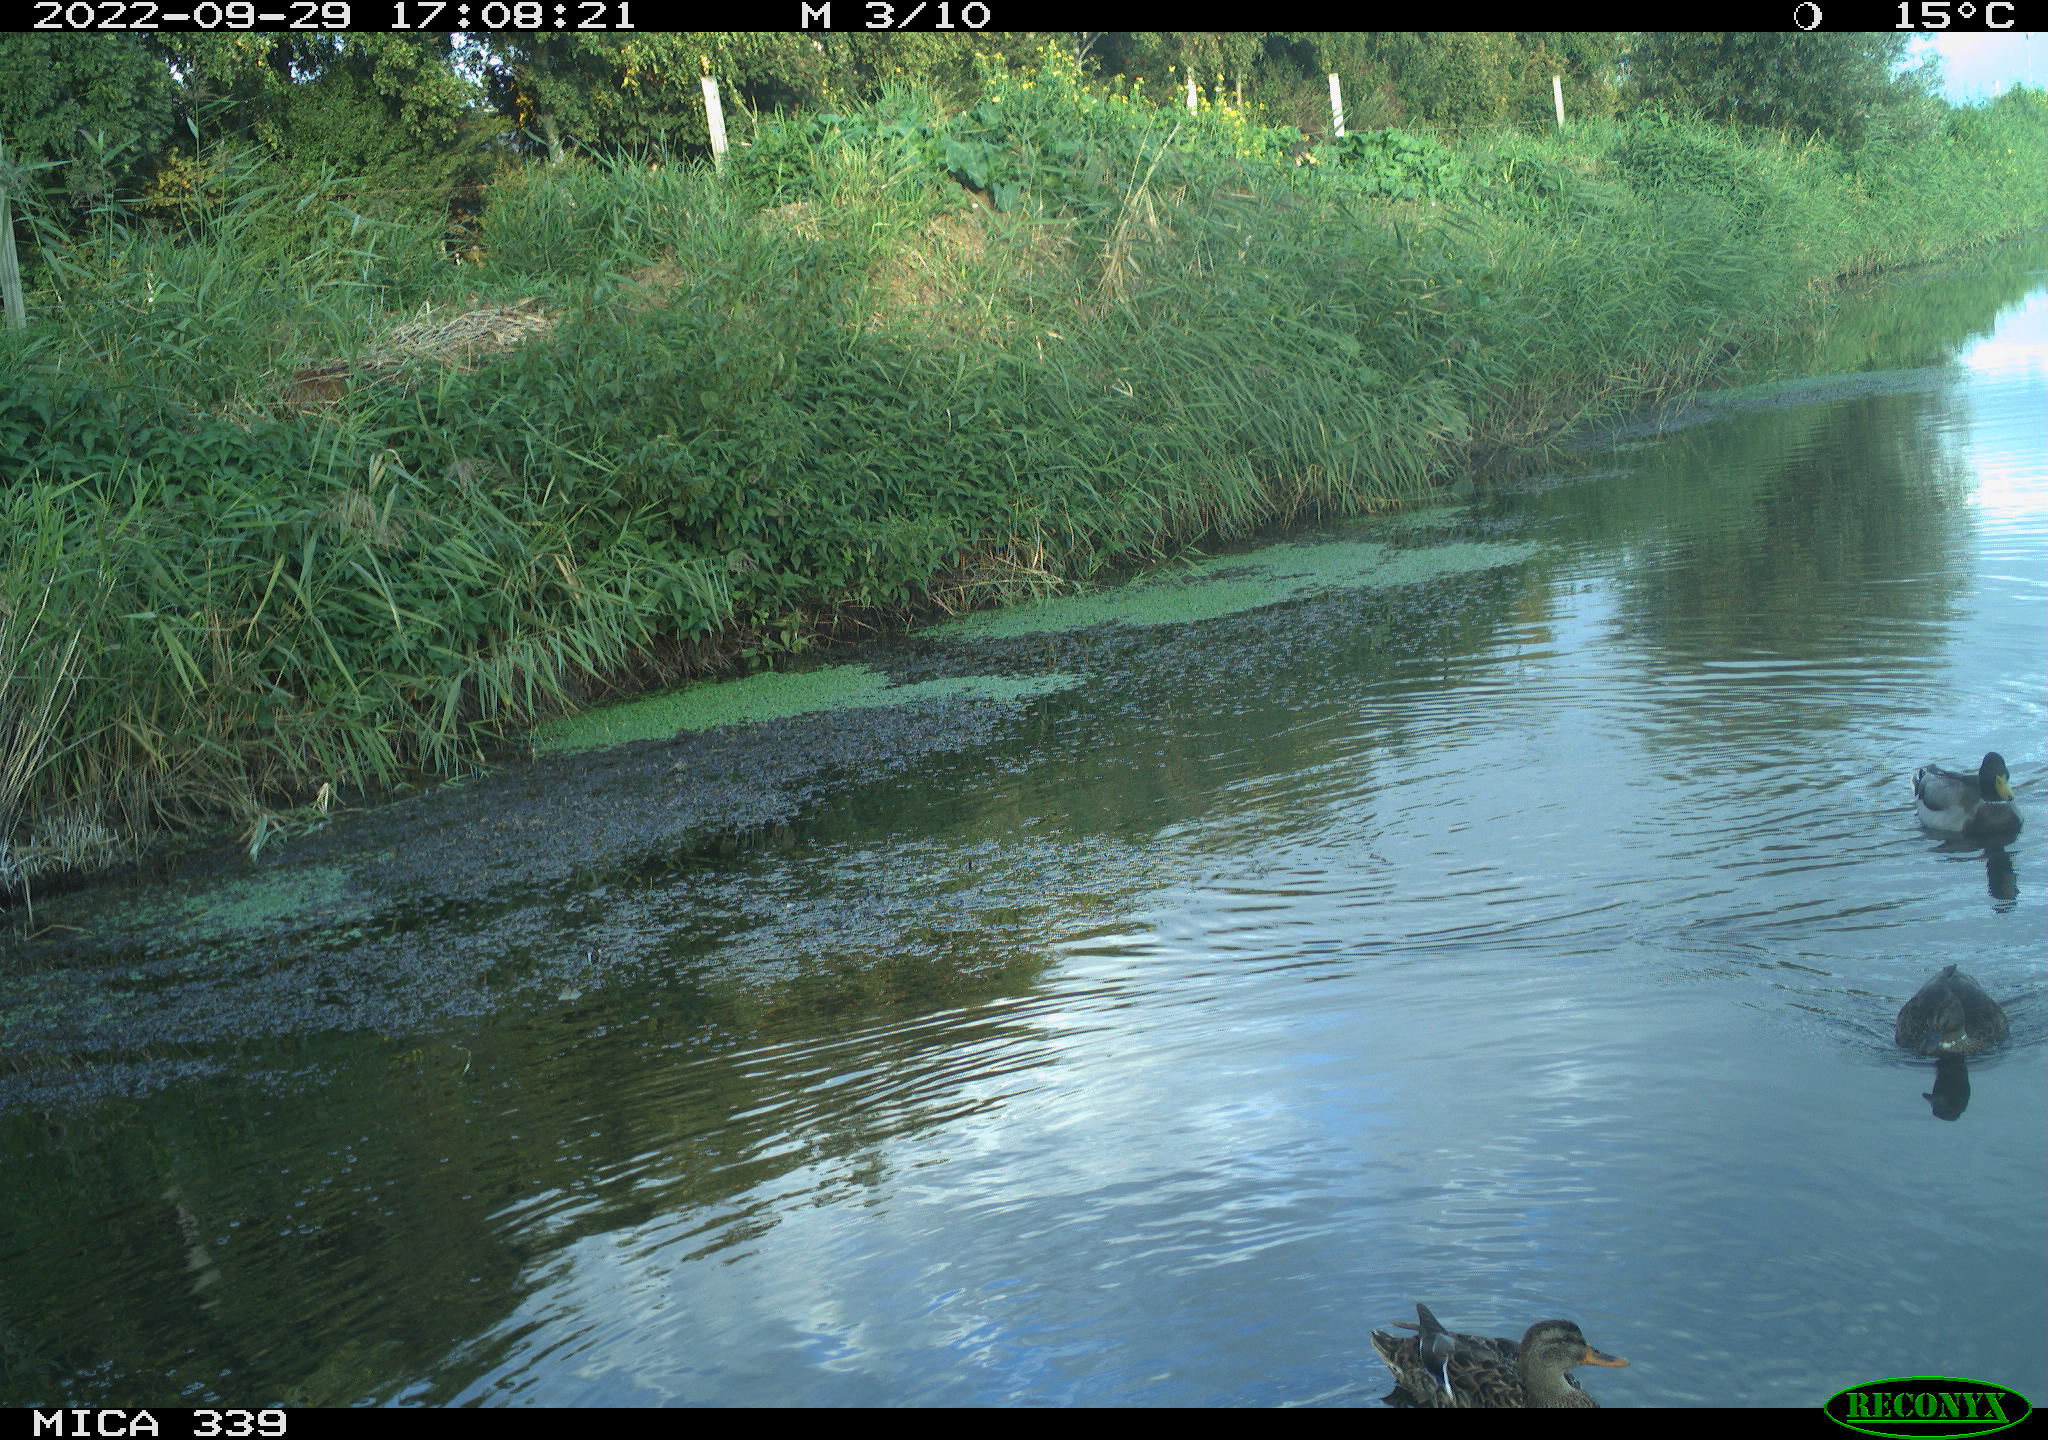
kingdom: Animalia
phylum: Chordata
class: Aves
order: Anseriformes
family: Anatidae
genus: Anas
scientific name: Anas platyrhynchos
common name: Mallard
